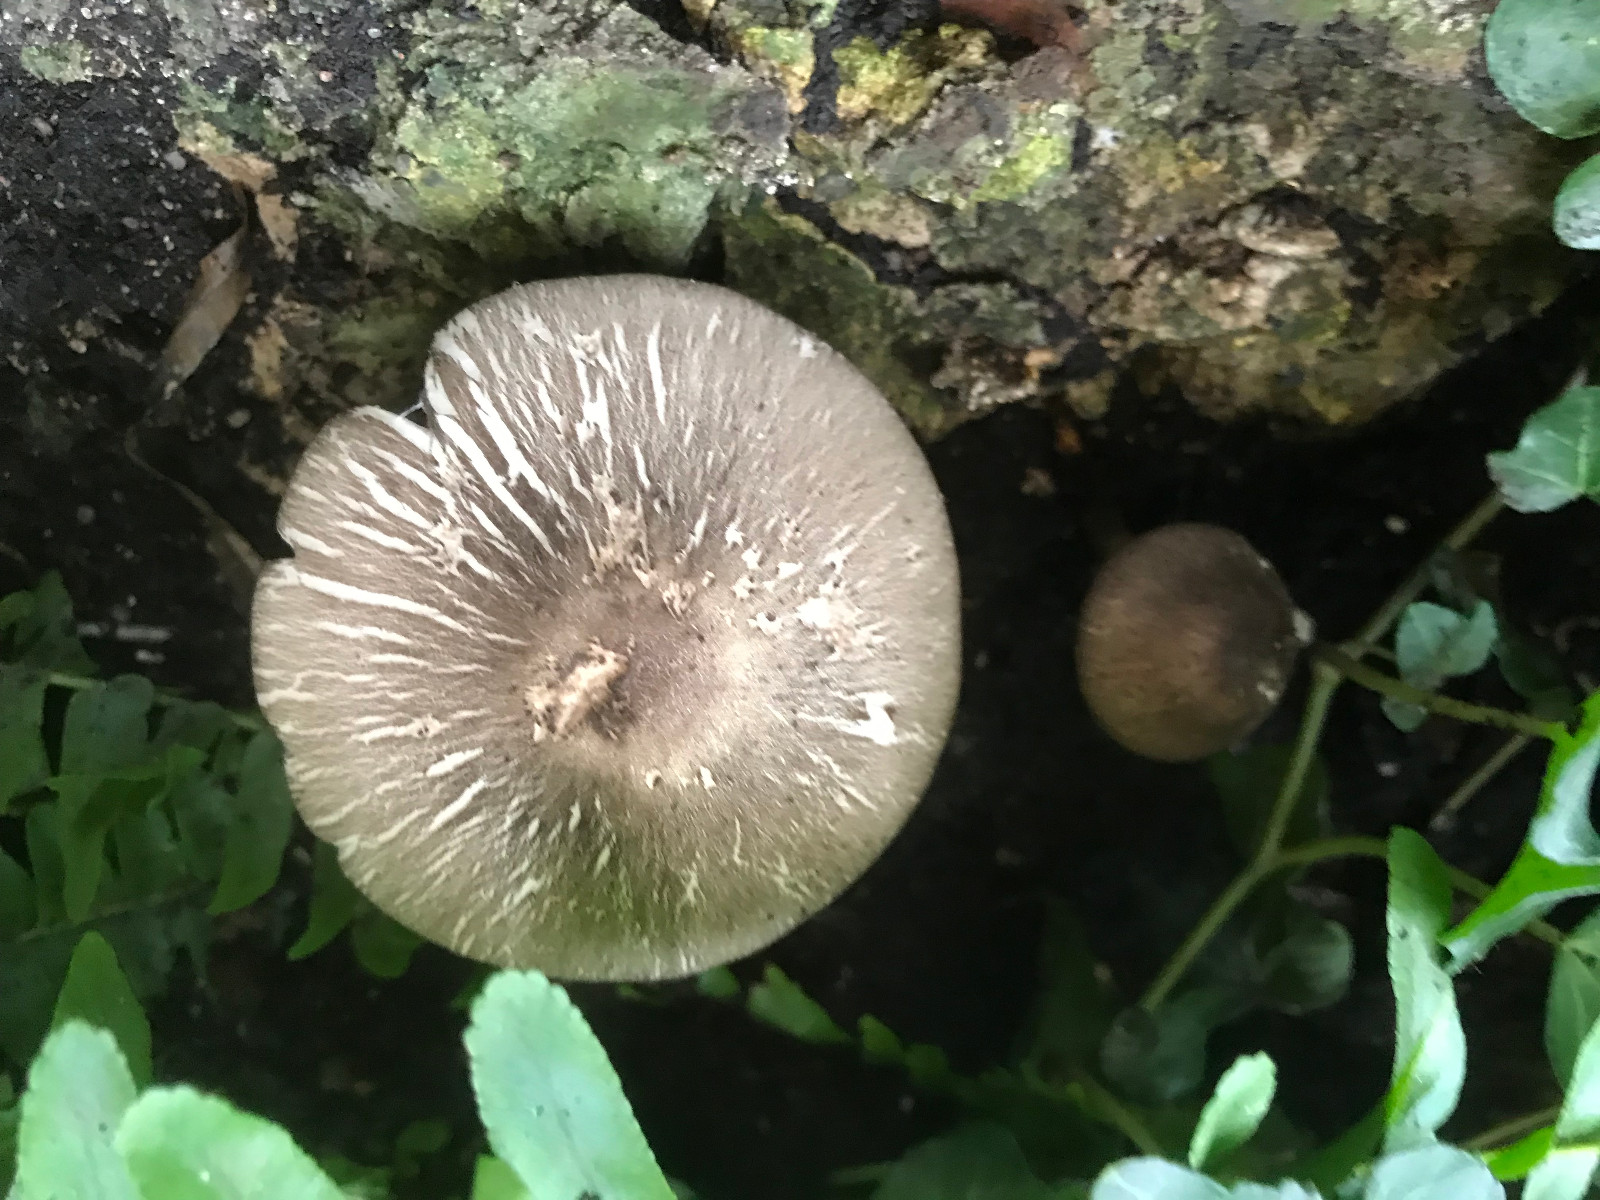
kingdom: Fungi
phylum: Basidiomycota
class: Agaricomycetes
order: Agaricales
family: Agaricaceae
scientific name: Agaricaceae
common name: champignonfamilien
